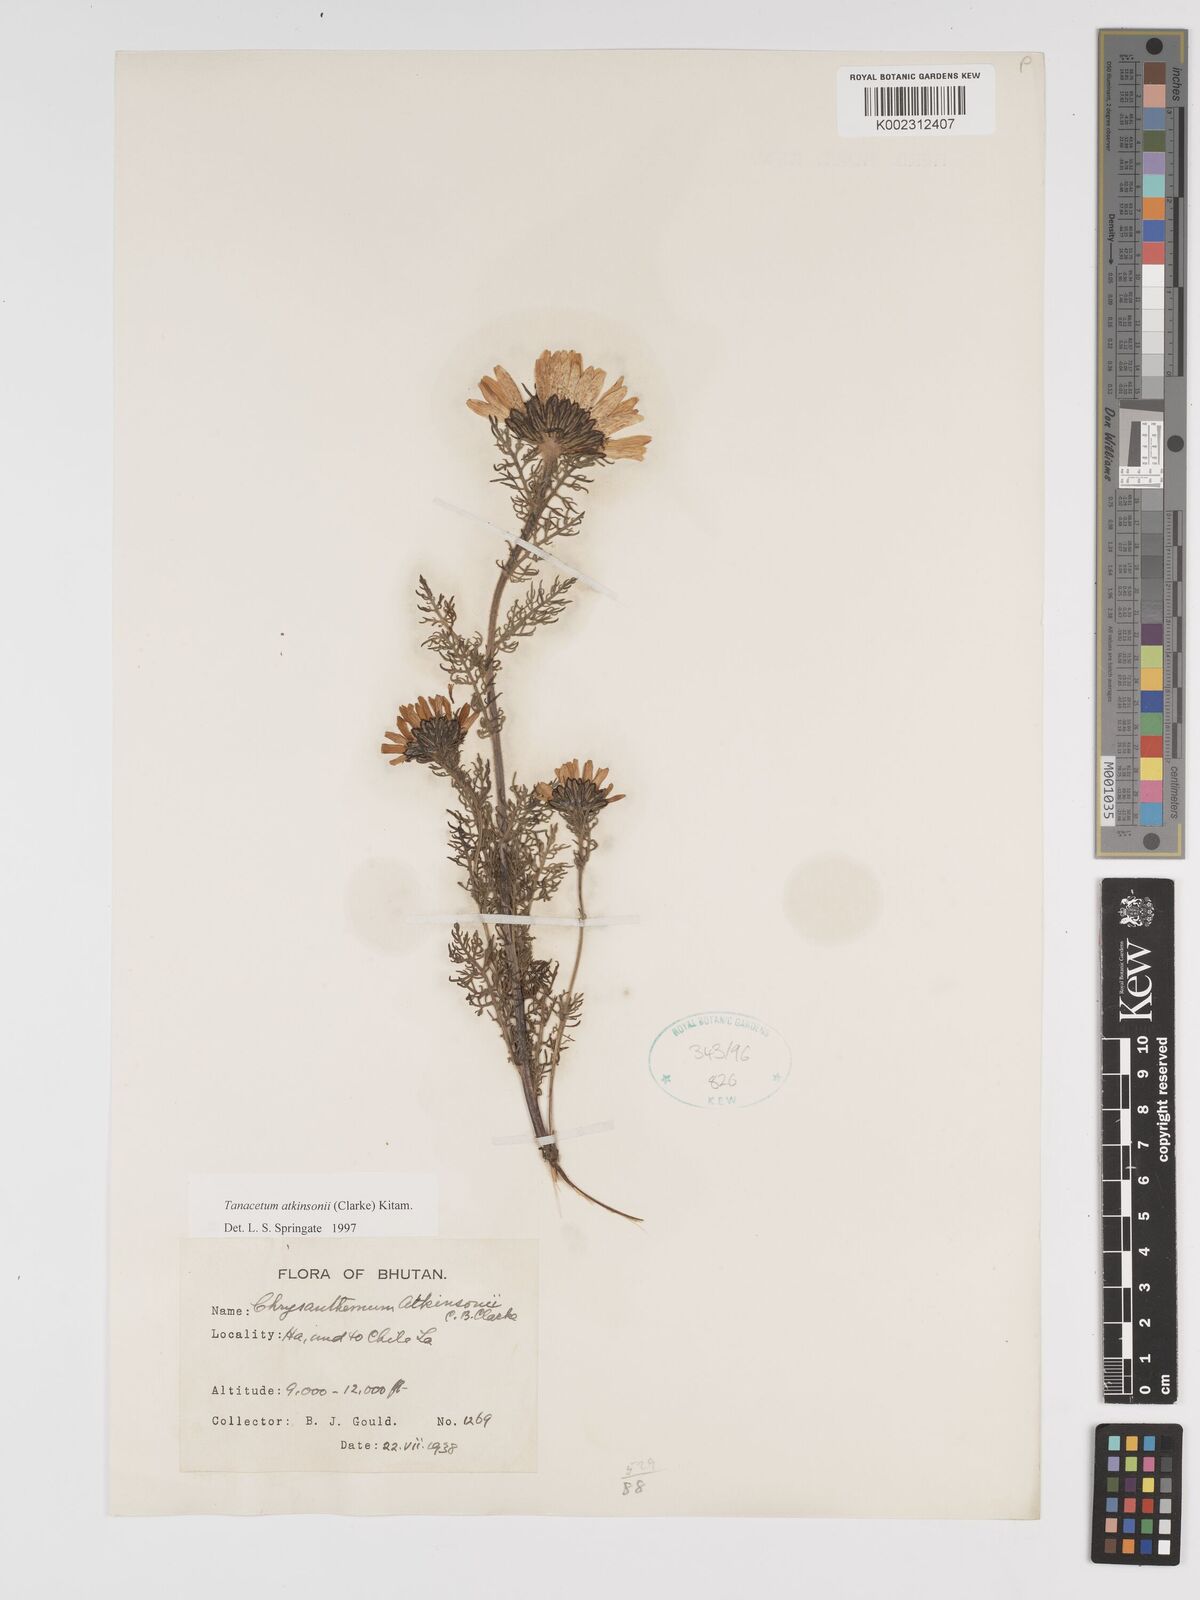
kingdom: Plantae
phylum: Tracheophyta
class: Magnoliopsida
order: Asterales
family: Asteraceae
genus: Tanacetum
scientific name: Tanacetum atkinsonii
